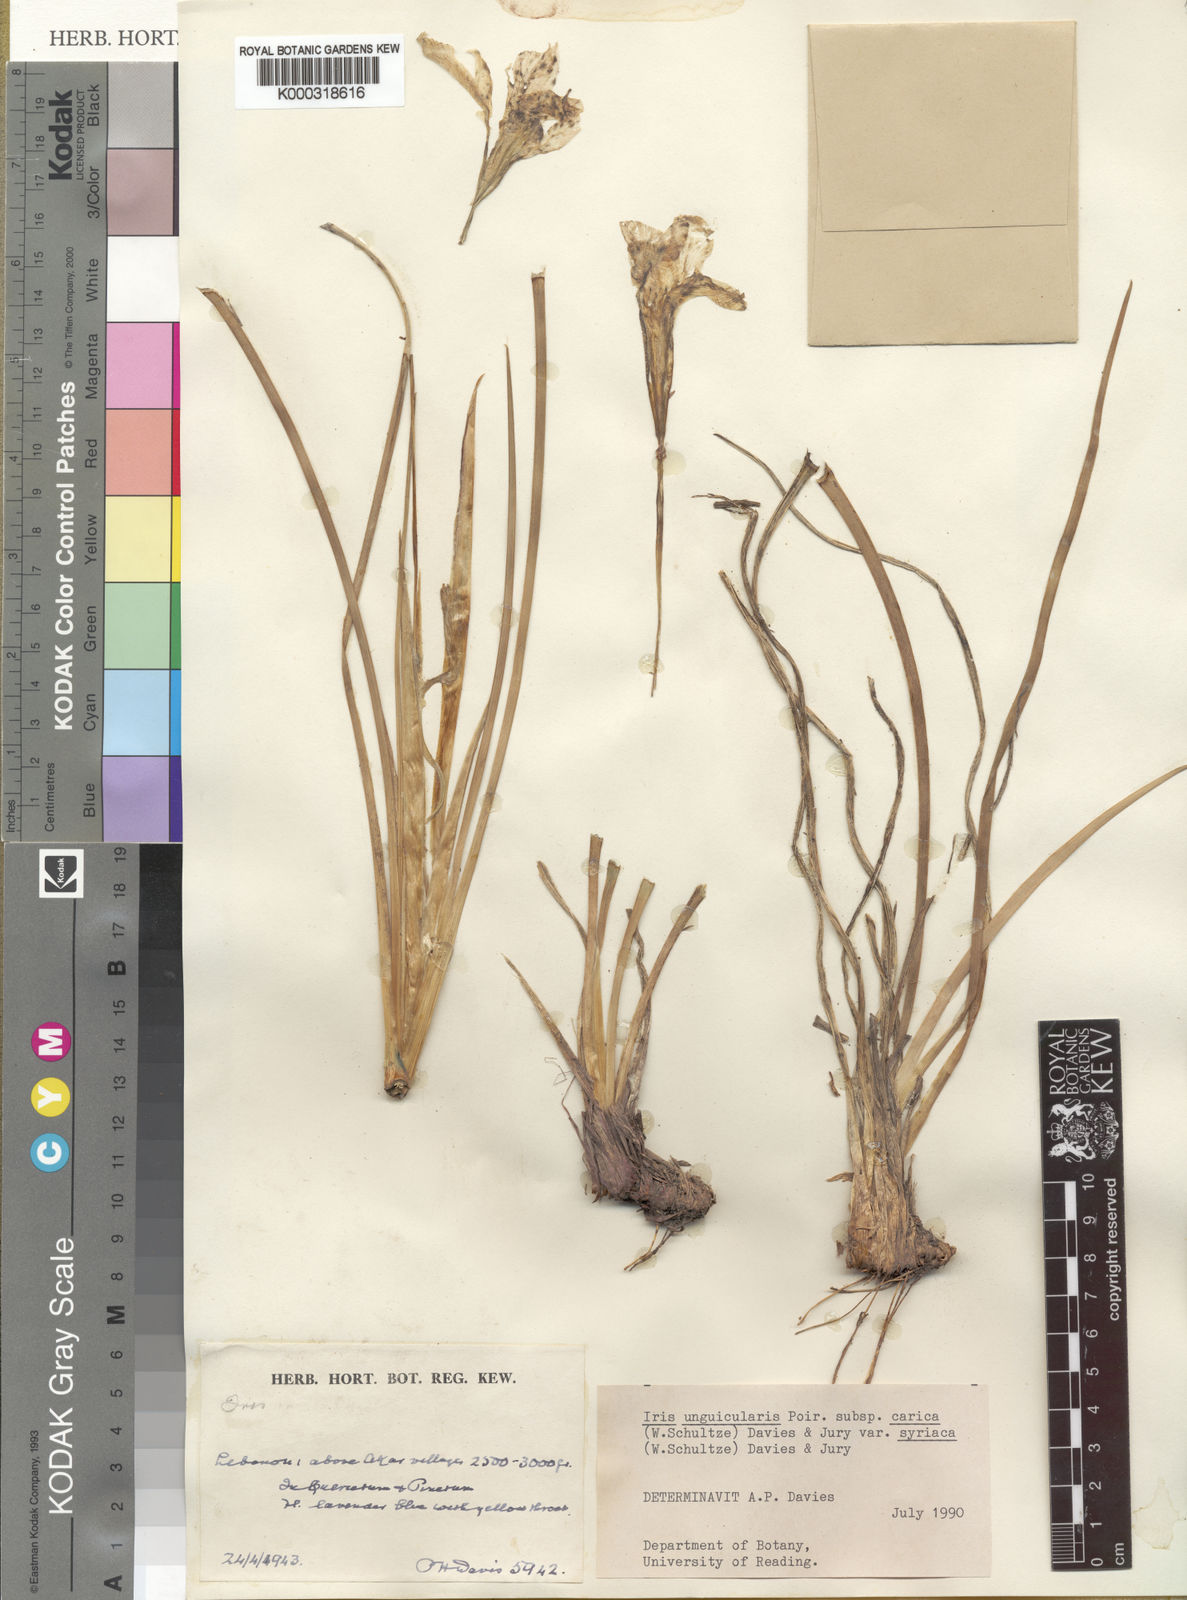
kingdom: Plantae
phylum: Tracheophyta
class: Liliopsida
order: Asparagales
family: Iridaceae
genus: Iris
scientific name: Iris unguicularis
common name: Algerian iris
